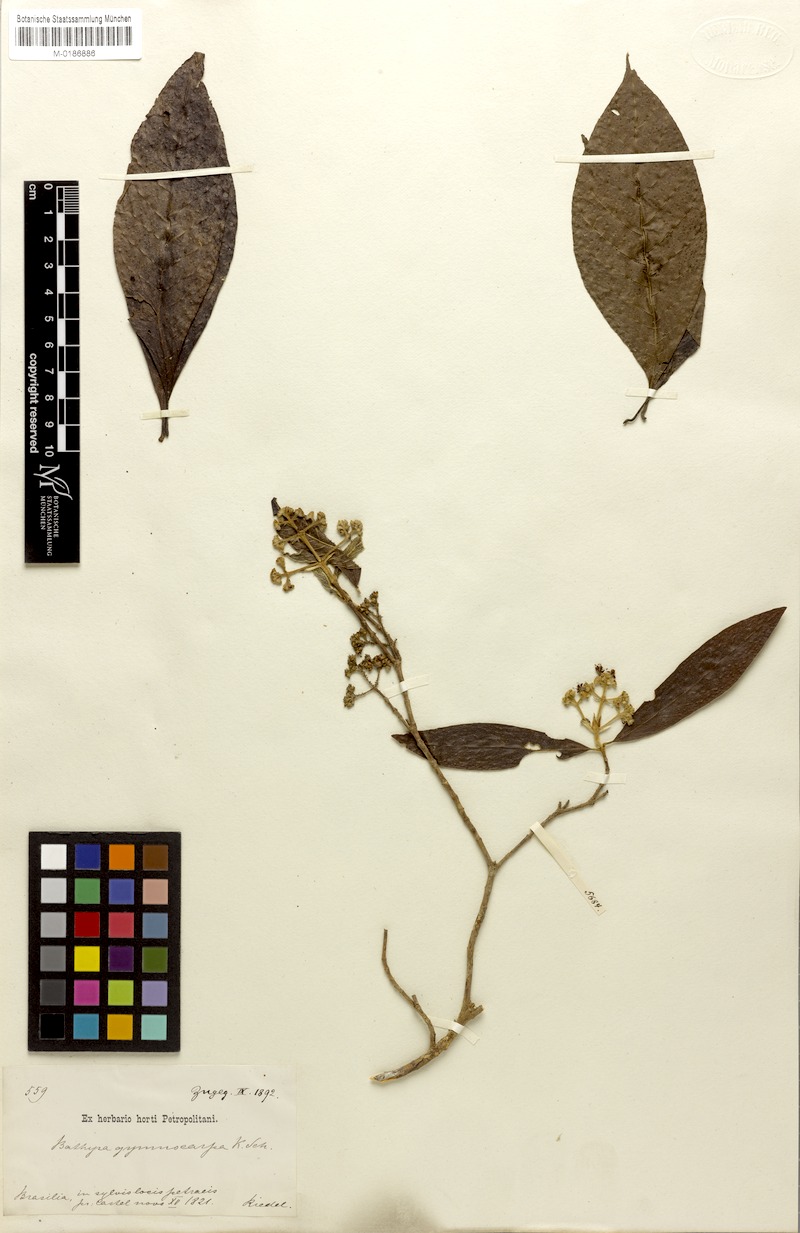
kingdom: Plantae
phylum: Tracheophyta
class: Magnoliopsida
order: Gentianales
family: Rubiaceae
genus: Bathysa
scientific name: Bathysa gymnocarpa
